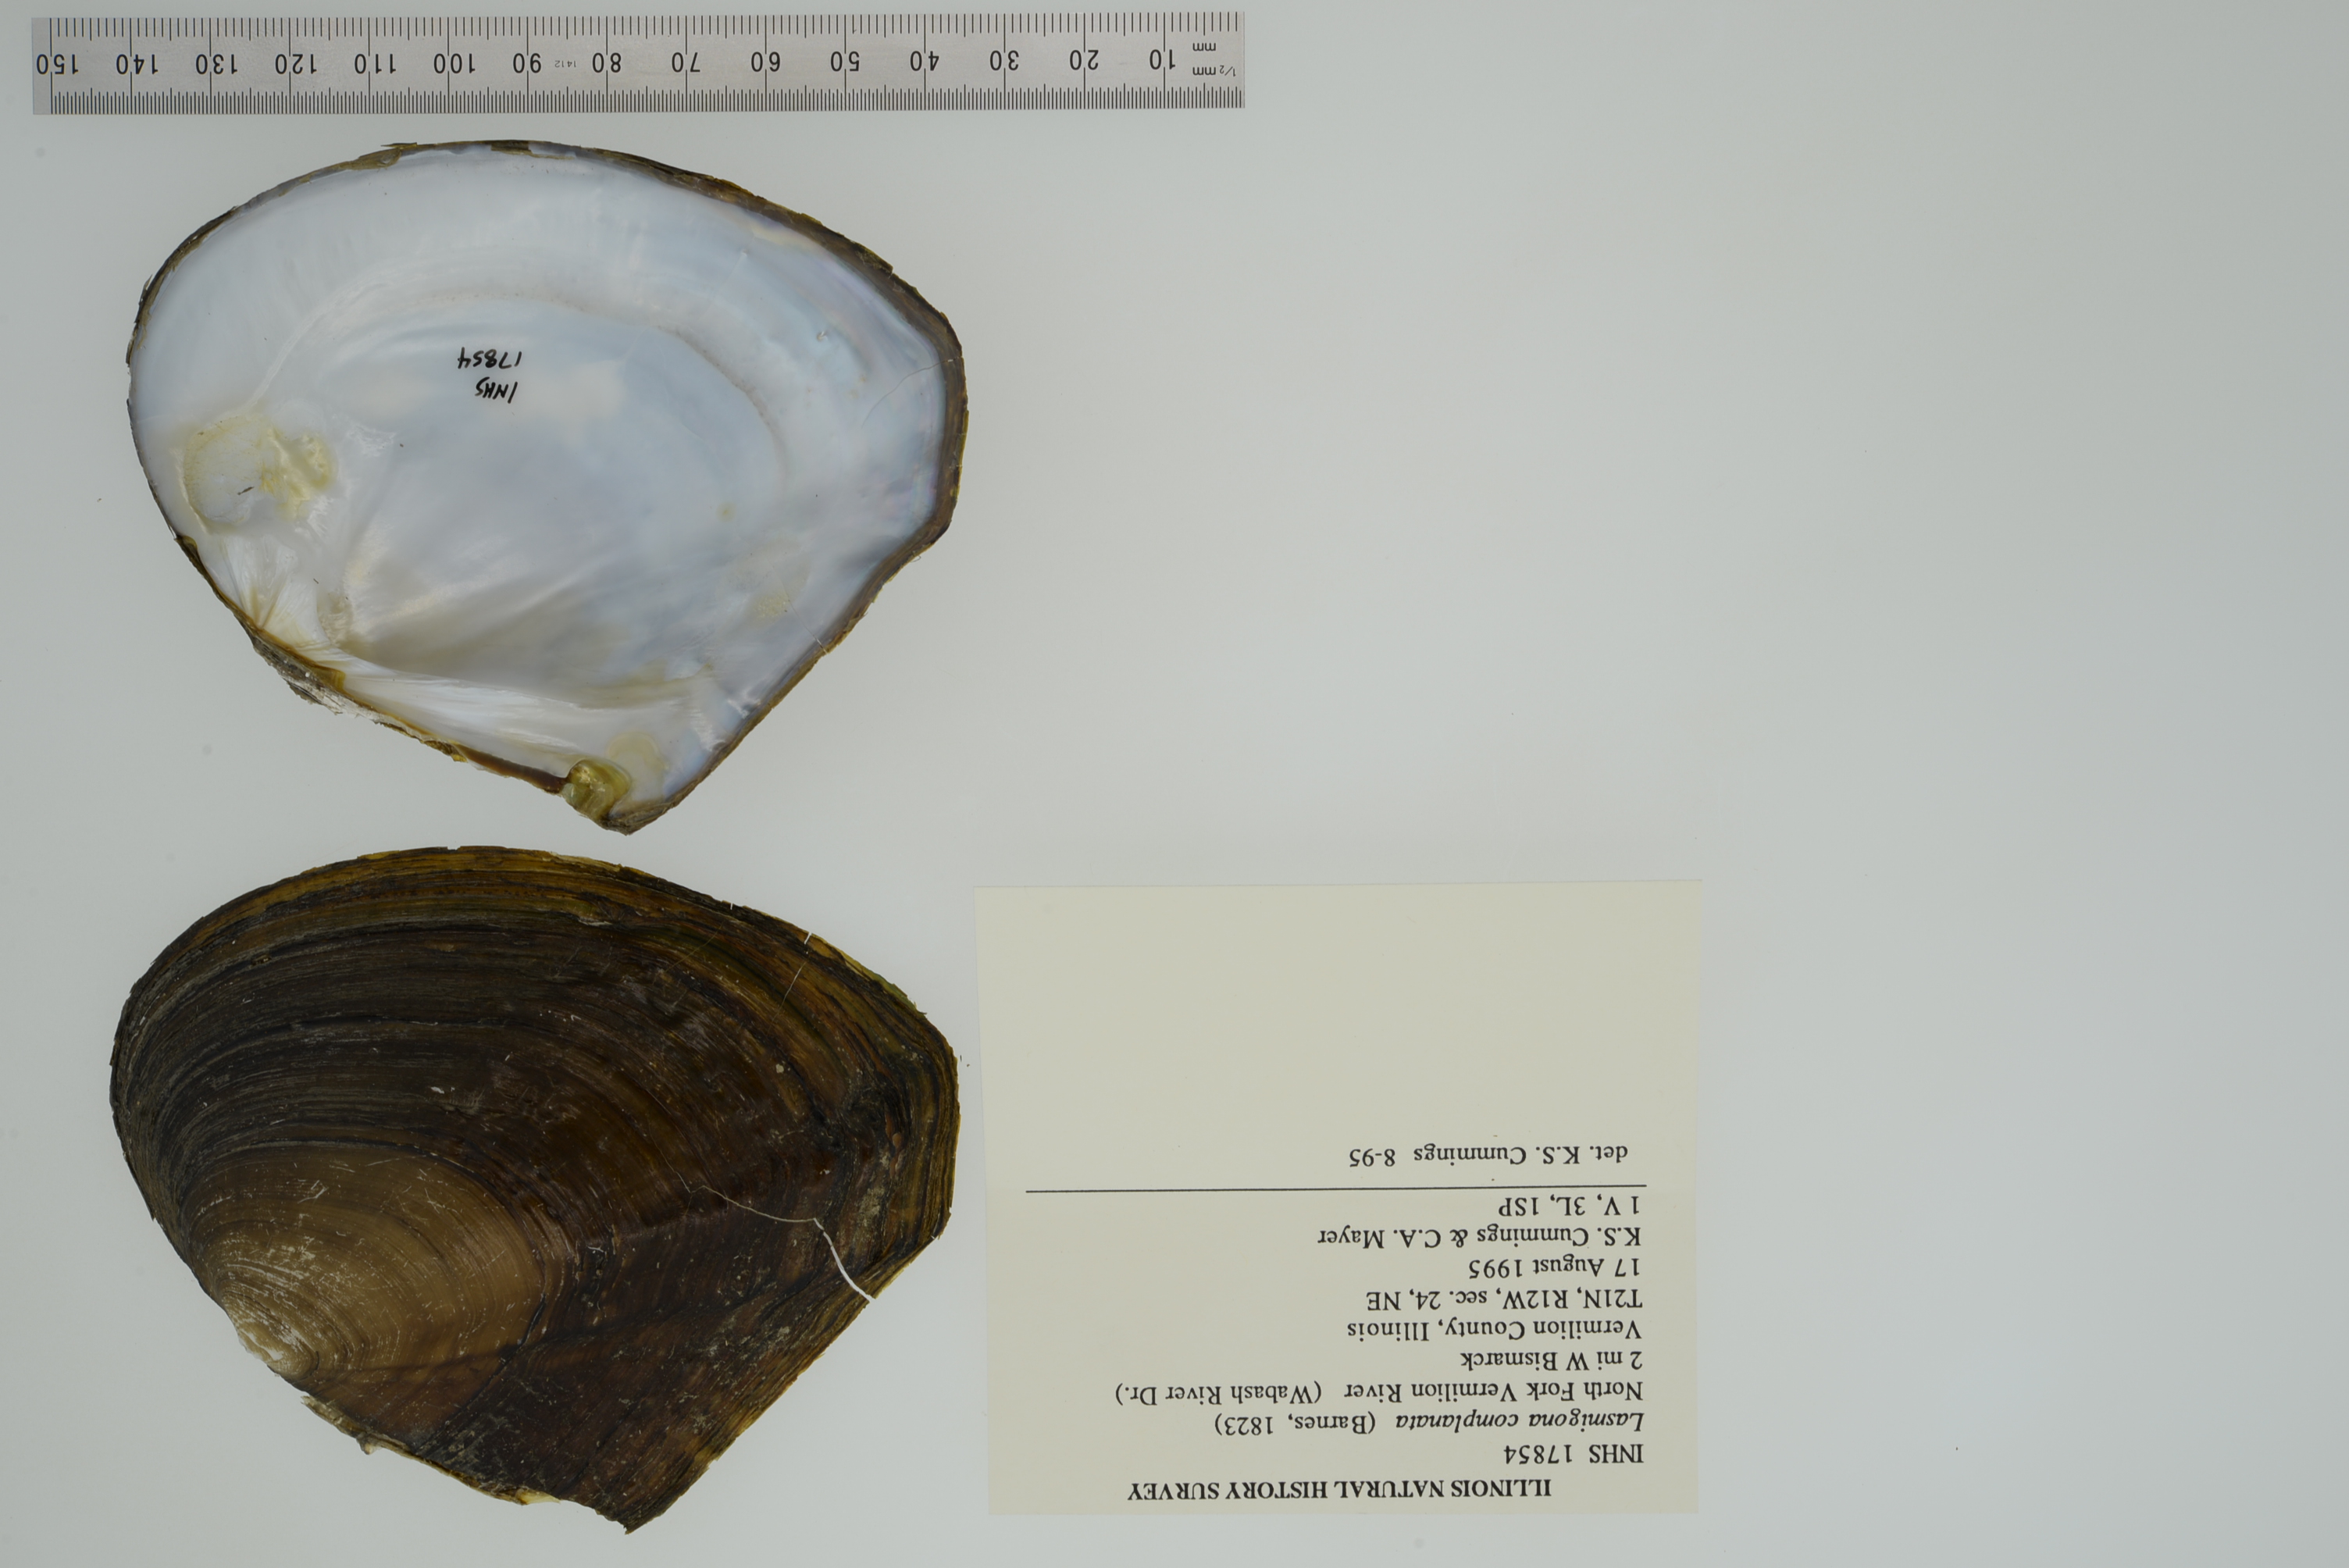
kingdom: Animalia
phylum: Mollusca
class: Bivalvia
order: Unionida
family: Unionidae
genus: Lasmigona
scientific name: Lasmigona complanata
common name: White heelsplitter
